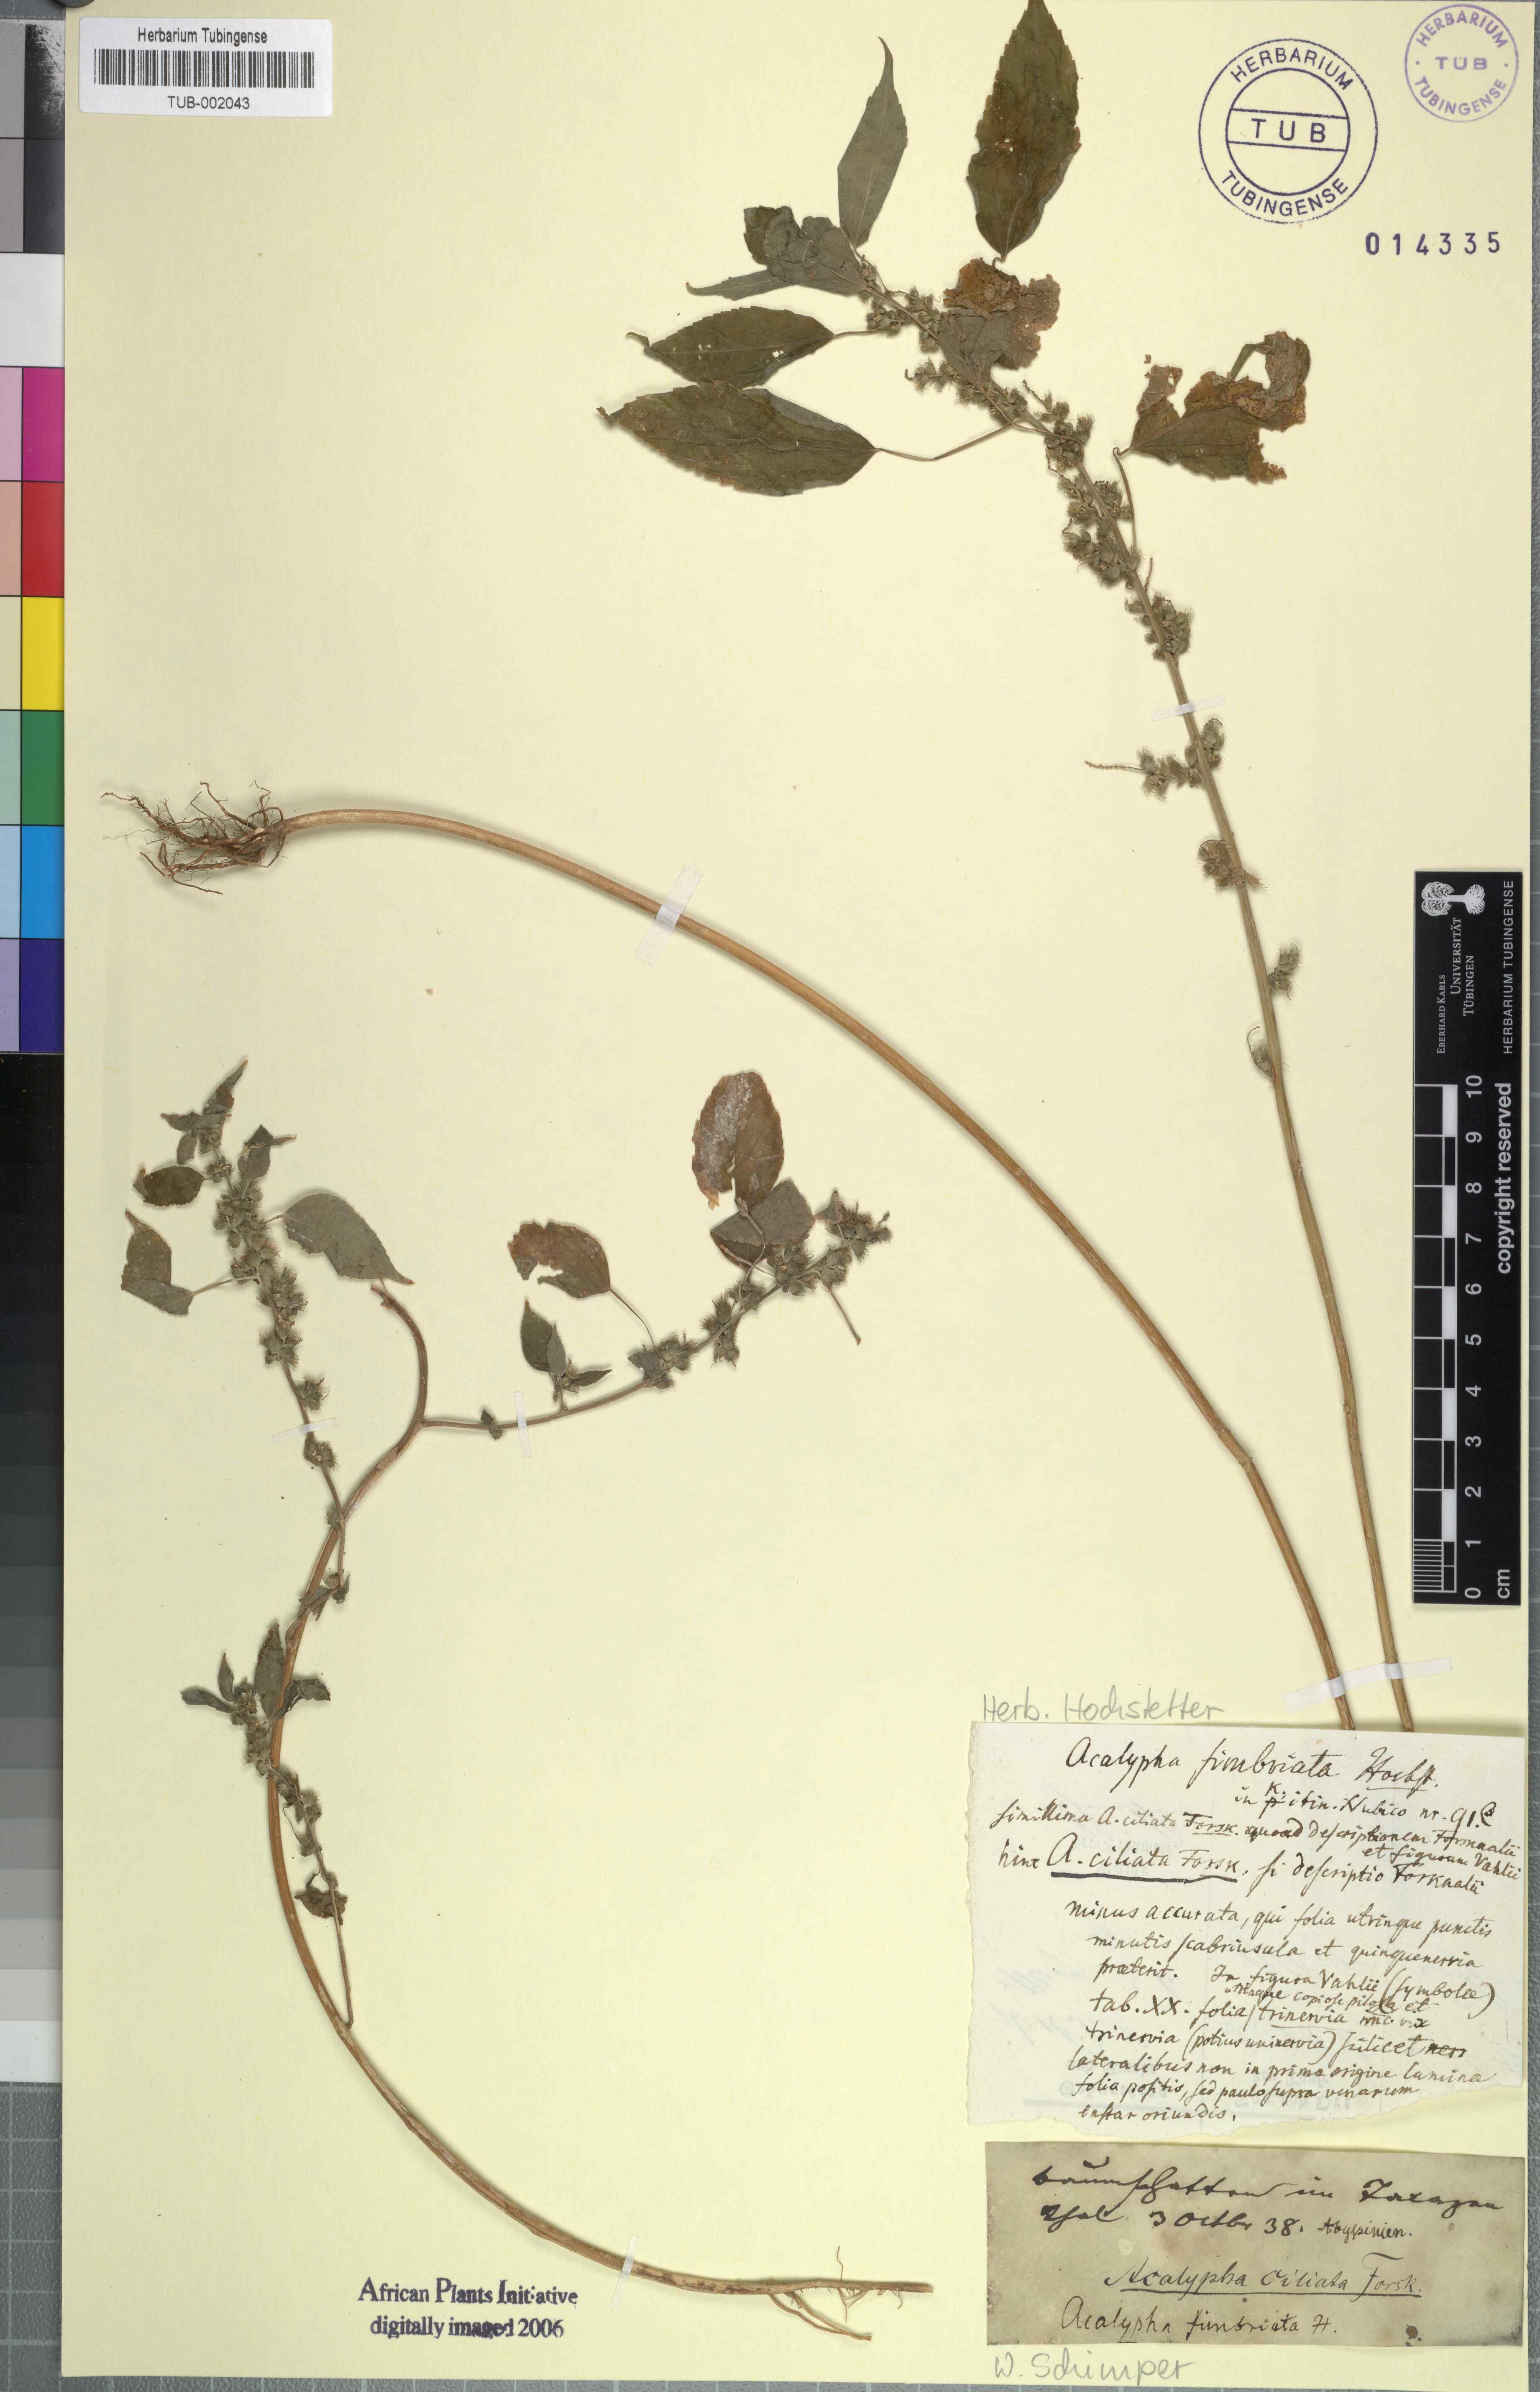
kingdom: Plantae
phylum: Tracheophyta
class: Magnoliopsida
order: Malpighiales
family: Euphorbiaceae
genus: Acalypha
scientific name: Acalypha fimbriata
